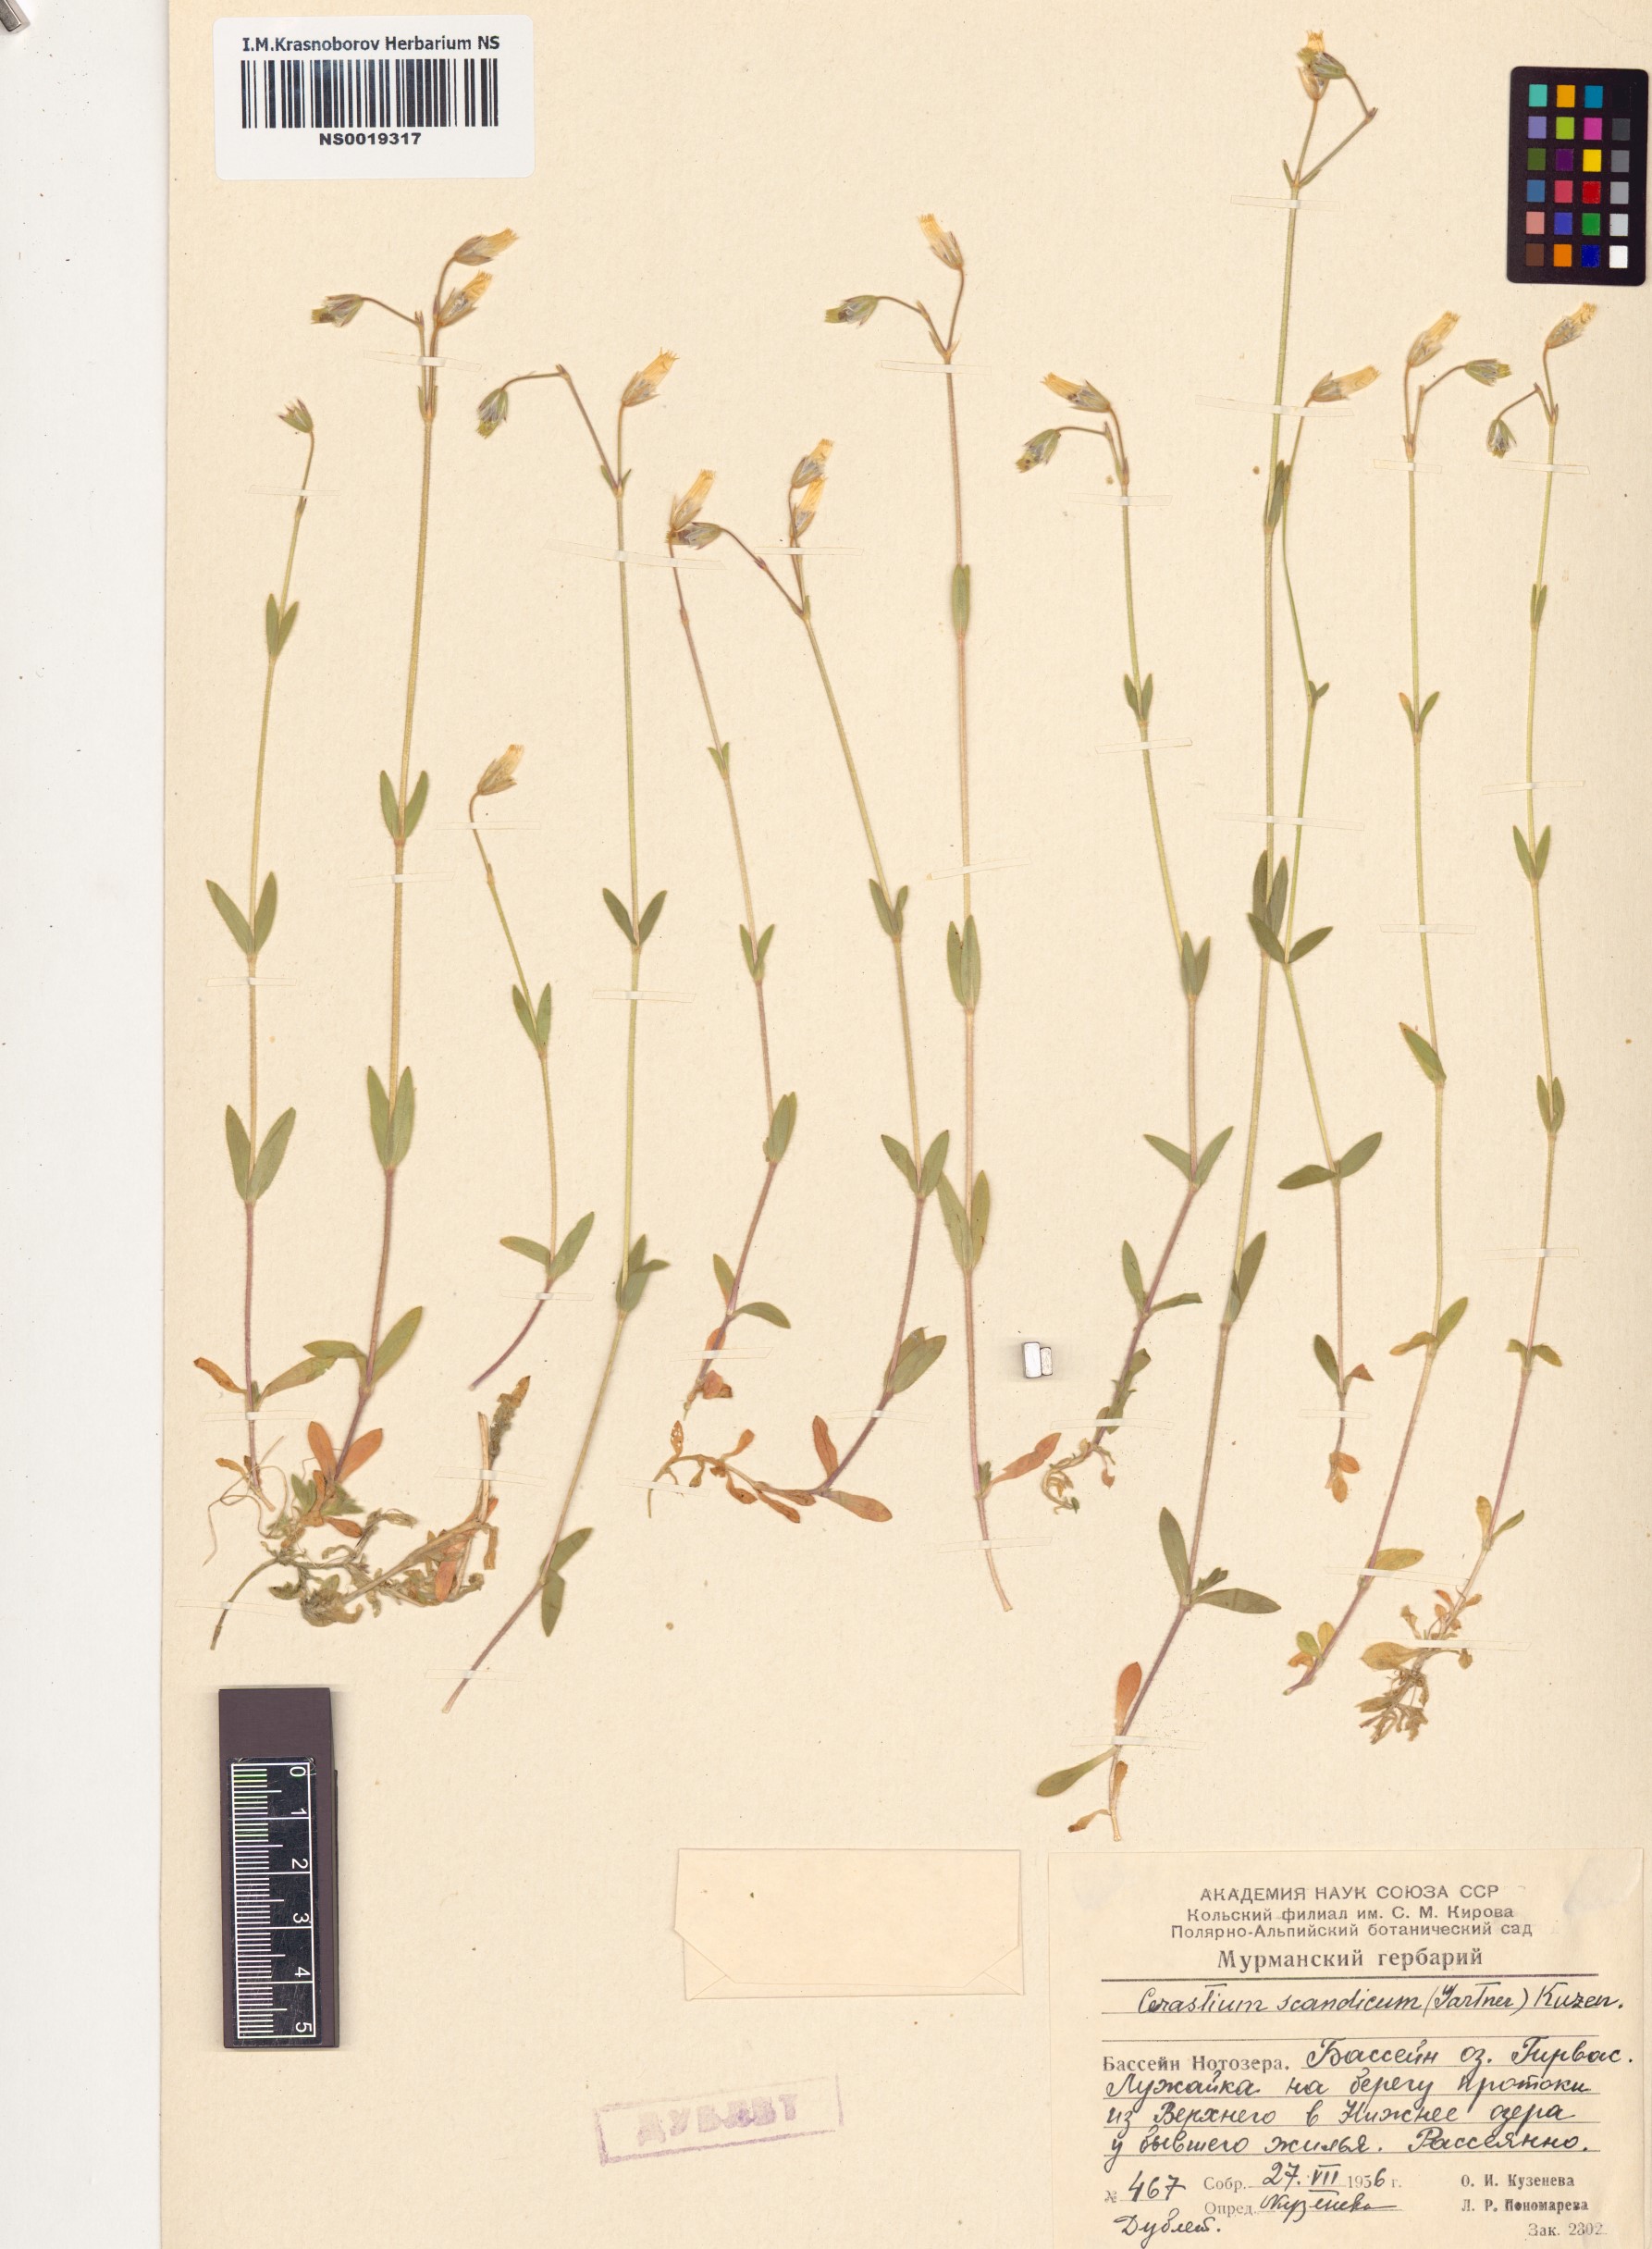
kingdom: Plantae
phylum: Tracheophyta
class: Magnoliopsida
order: Caryophyllales
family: Caryophyllaceae
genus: Cerastium
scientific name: Cerastium holosteoides
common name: Big chickweed
